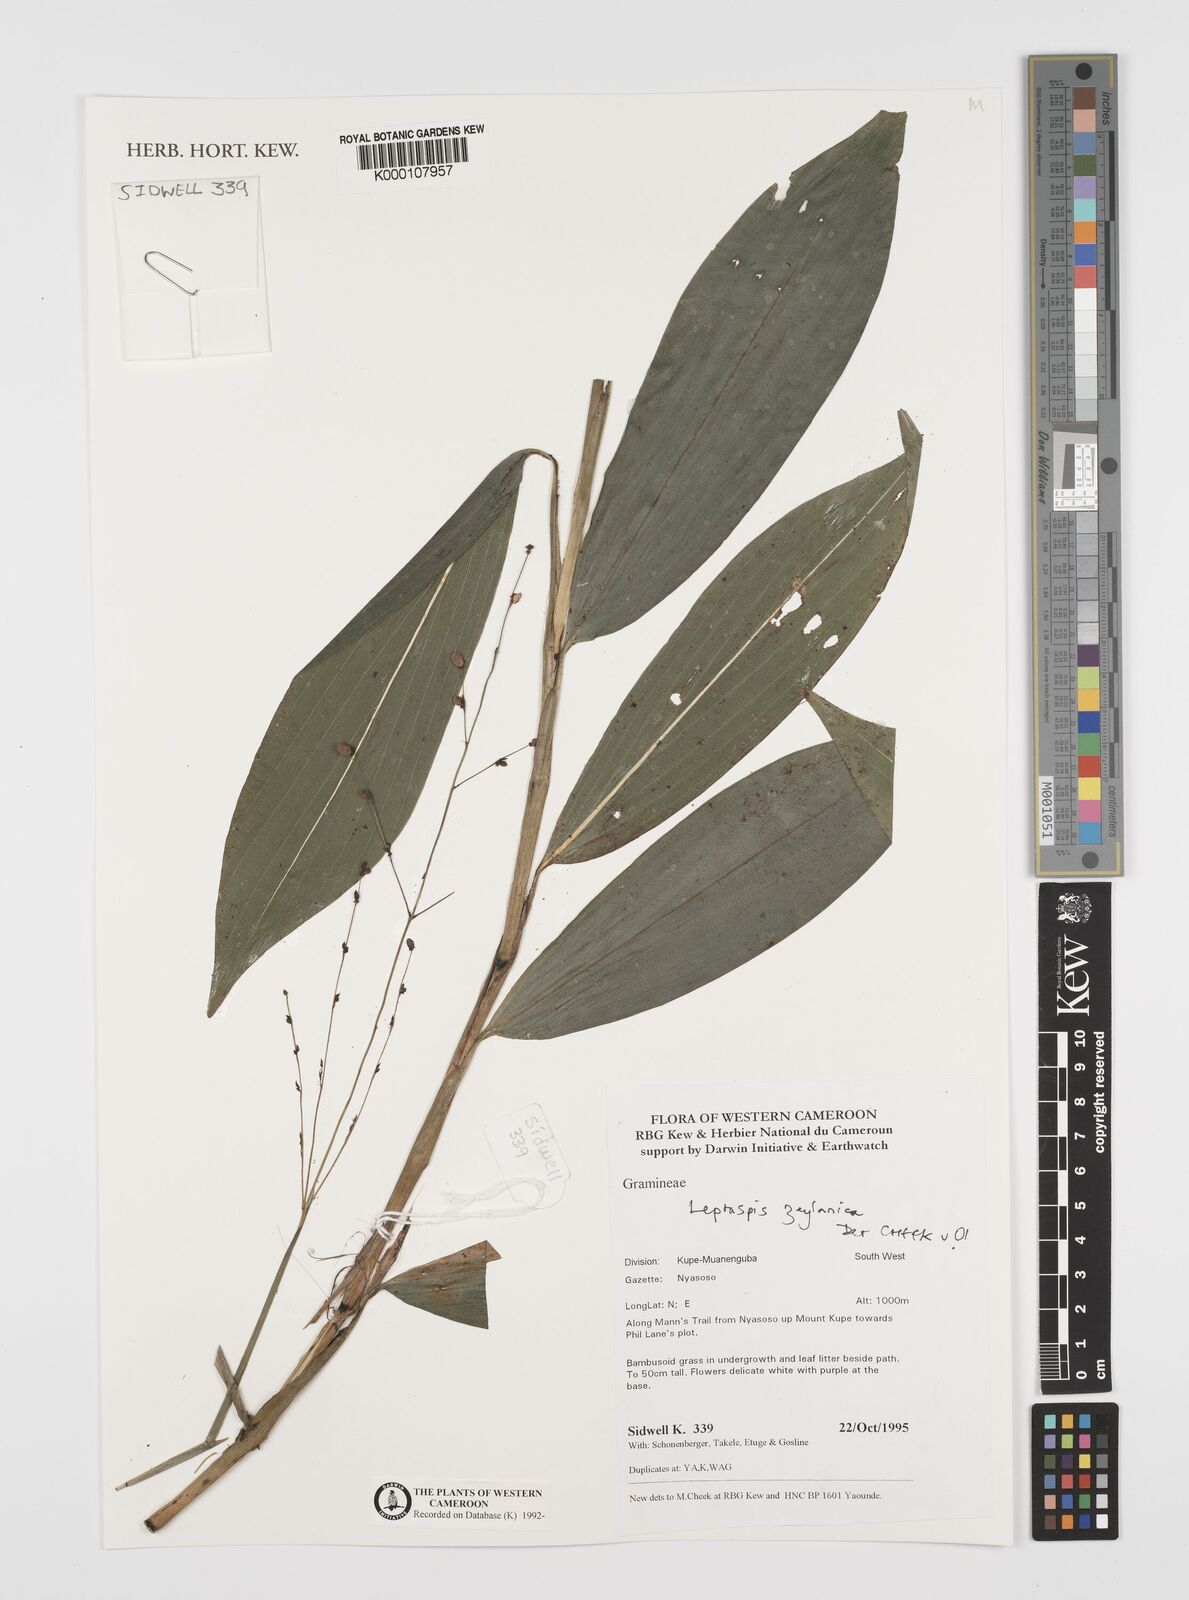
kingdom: Plantae
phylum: Tracheophyta
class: Liliopsida
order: Poales
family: Poaceae
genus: Leptaspis
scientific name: Leptaspis zeylanica
